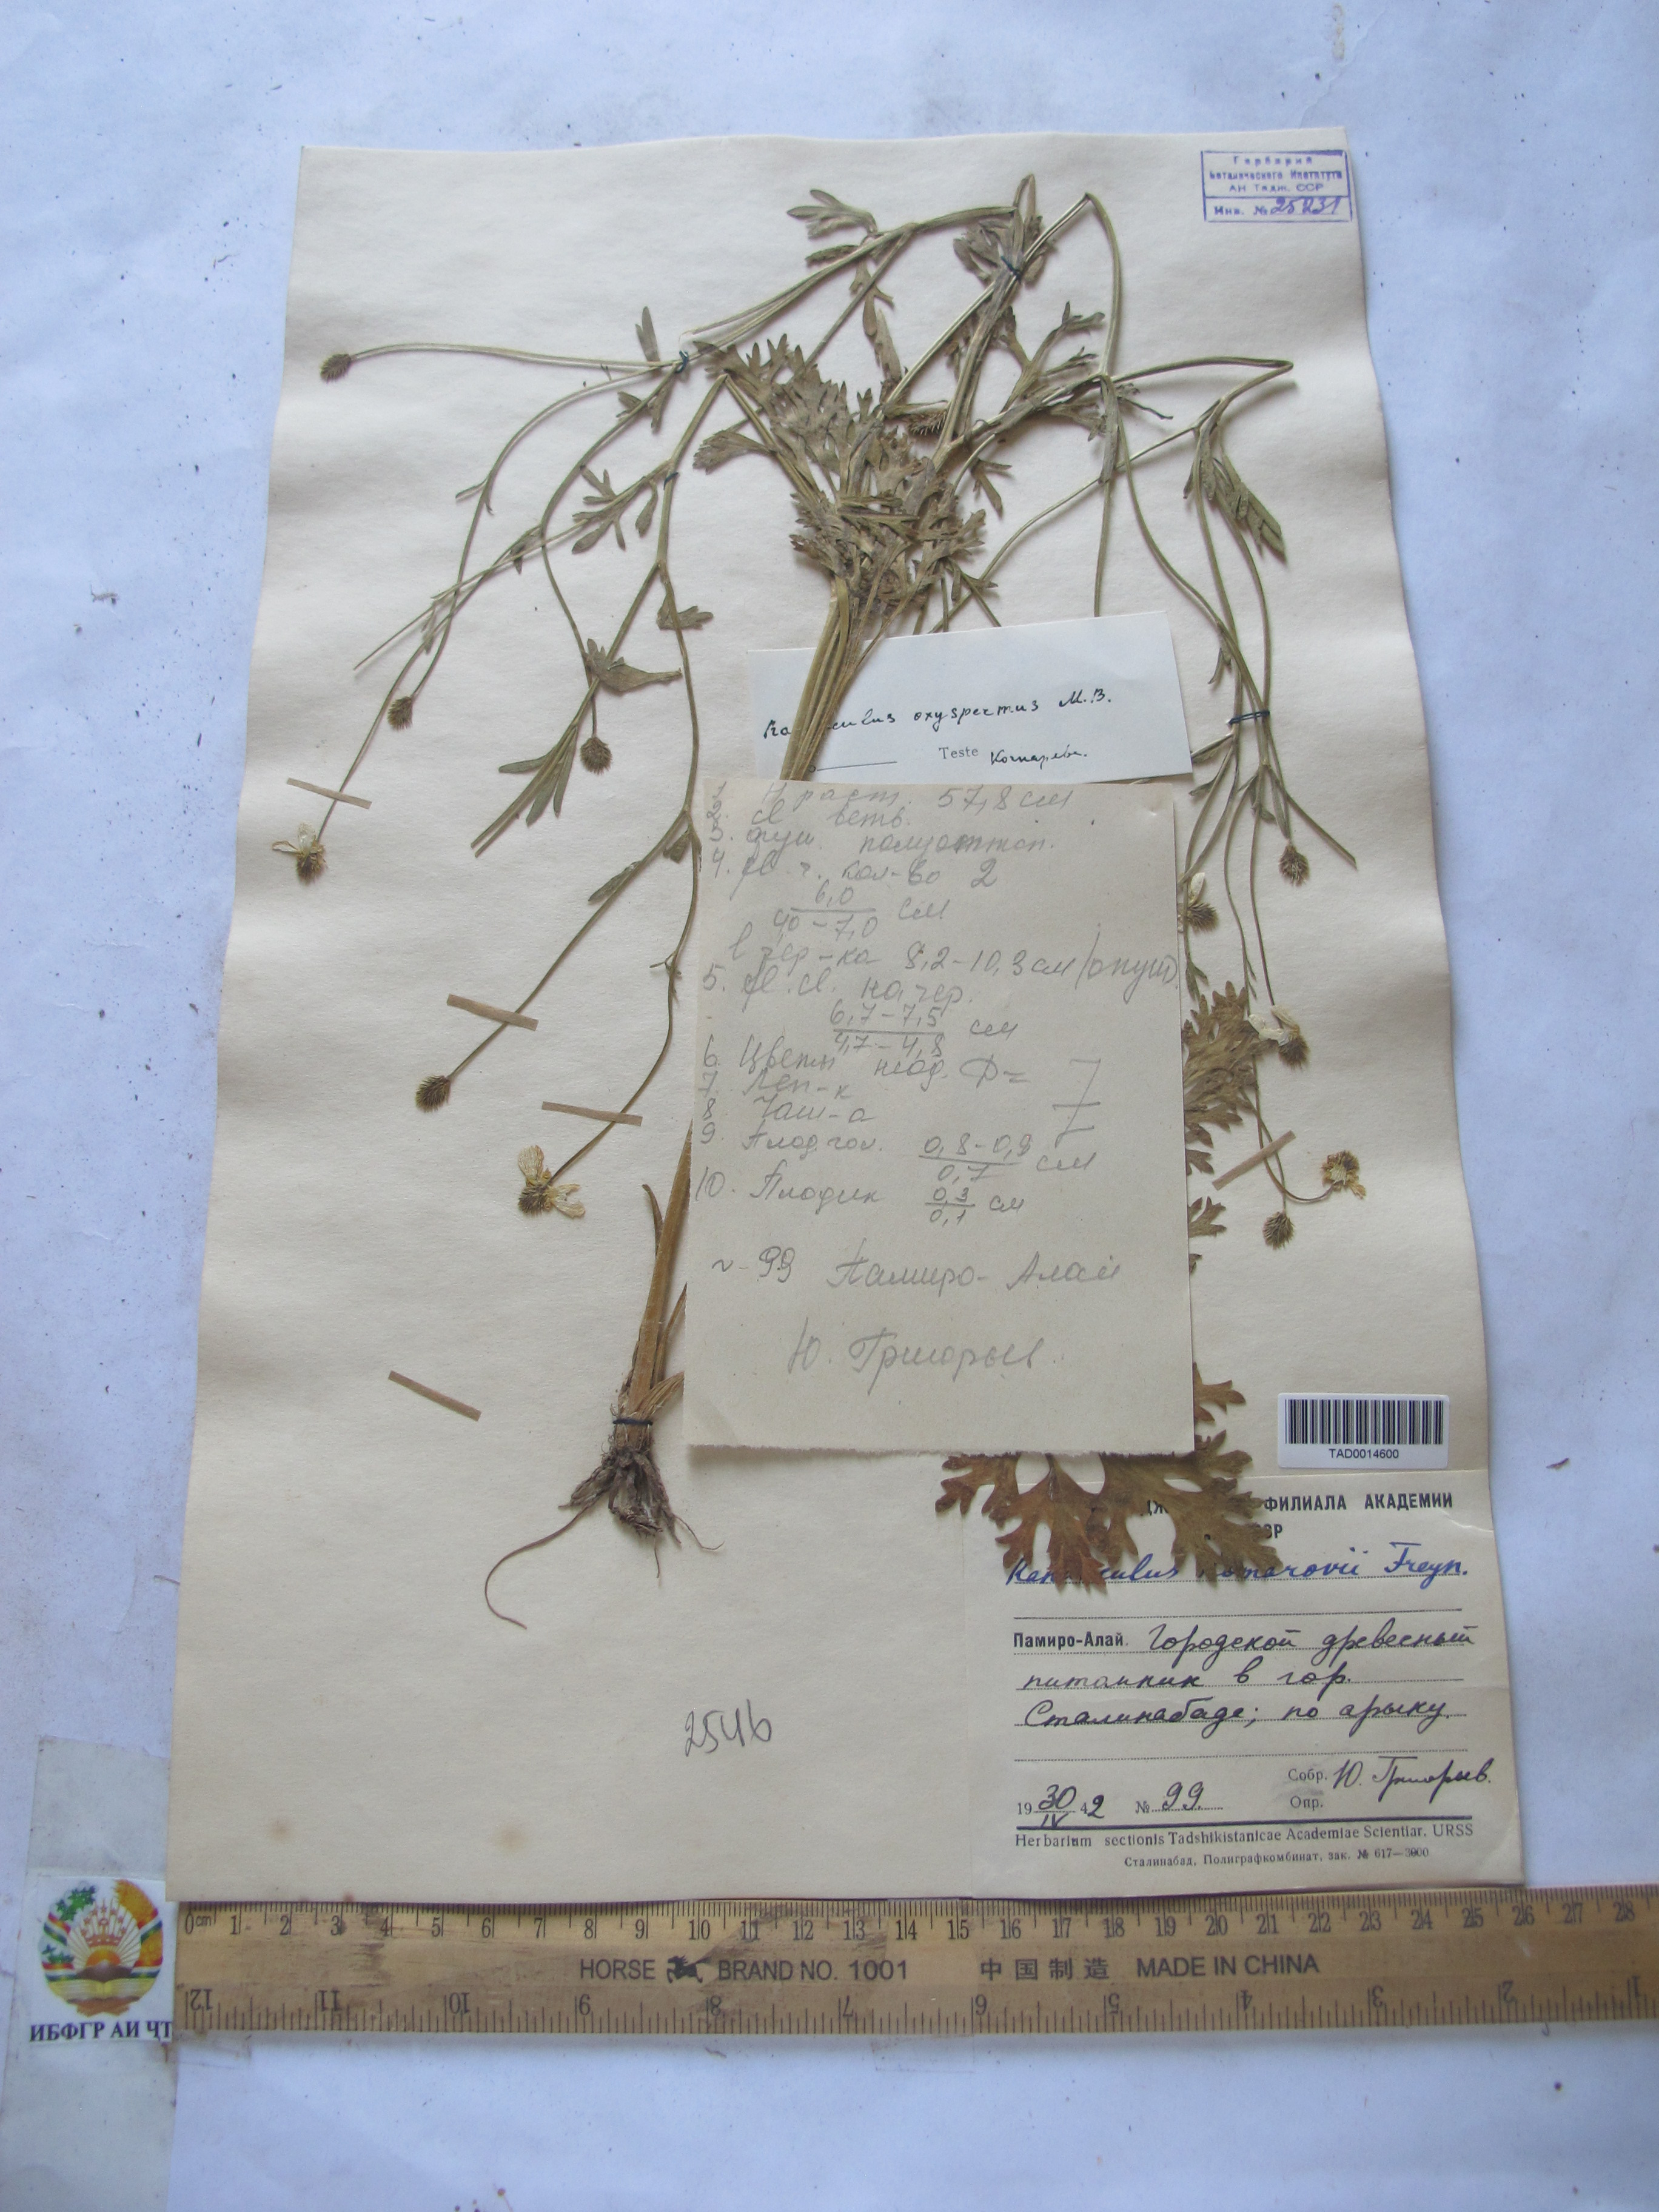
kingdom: Plantae
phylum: Tracheophyta
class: Magnoliopsida
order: Ranunculales
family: Ranunculaceae
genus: Ranunculus
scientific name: Ranunculus oxyspermus
